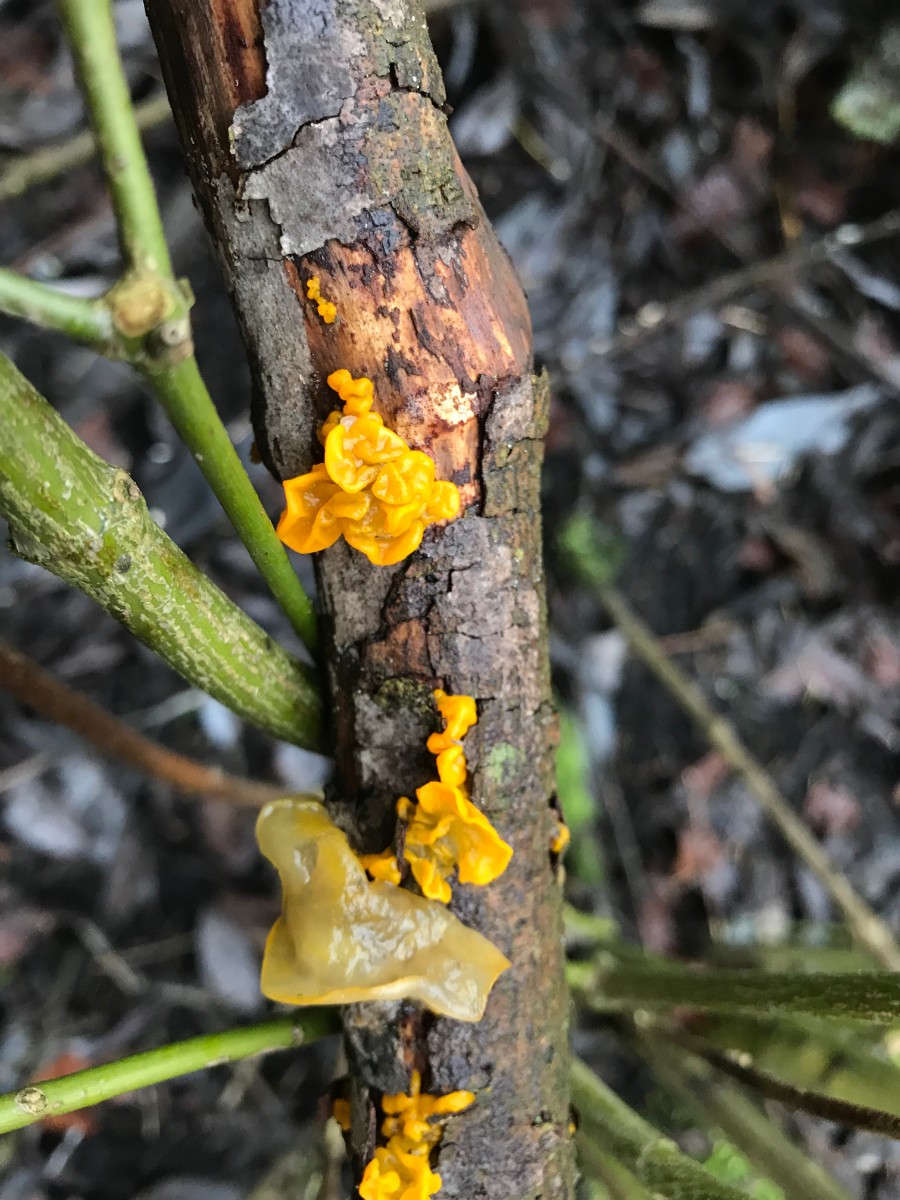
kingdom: Fungi
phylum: Basidiomycota
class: Tremellomycetes
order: Tremellales
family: Tremellaceae
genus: Tremella
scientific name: Tremella mesenterica
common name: gul bævresvamp
